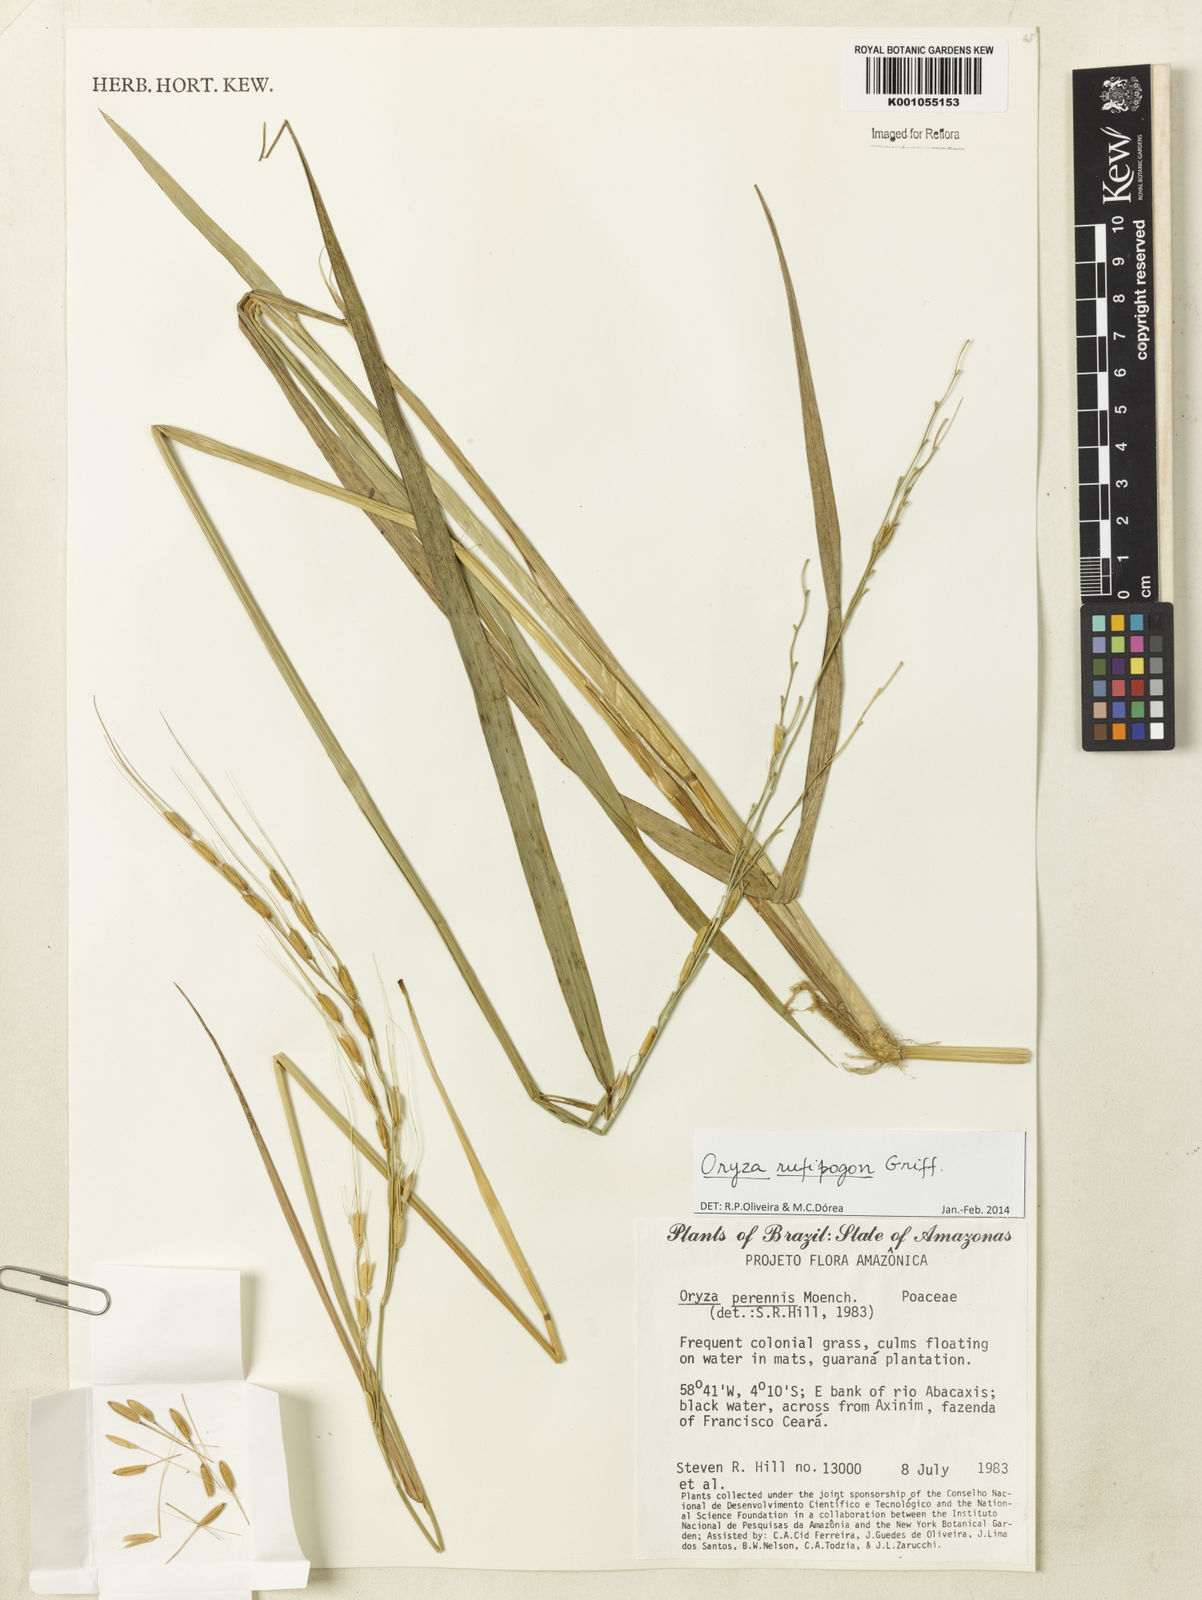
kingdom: Plantae
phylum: Tracheophyta
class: Liliopsida
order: Poales
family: Poaceae
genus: Oryza
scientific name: Oryza rufipogon
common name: Red rice
